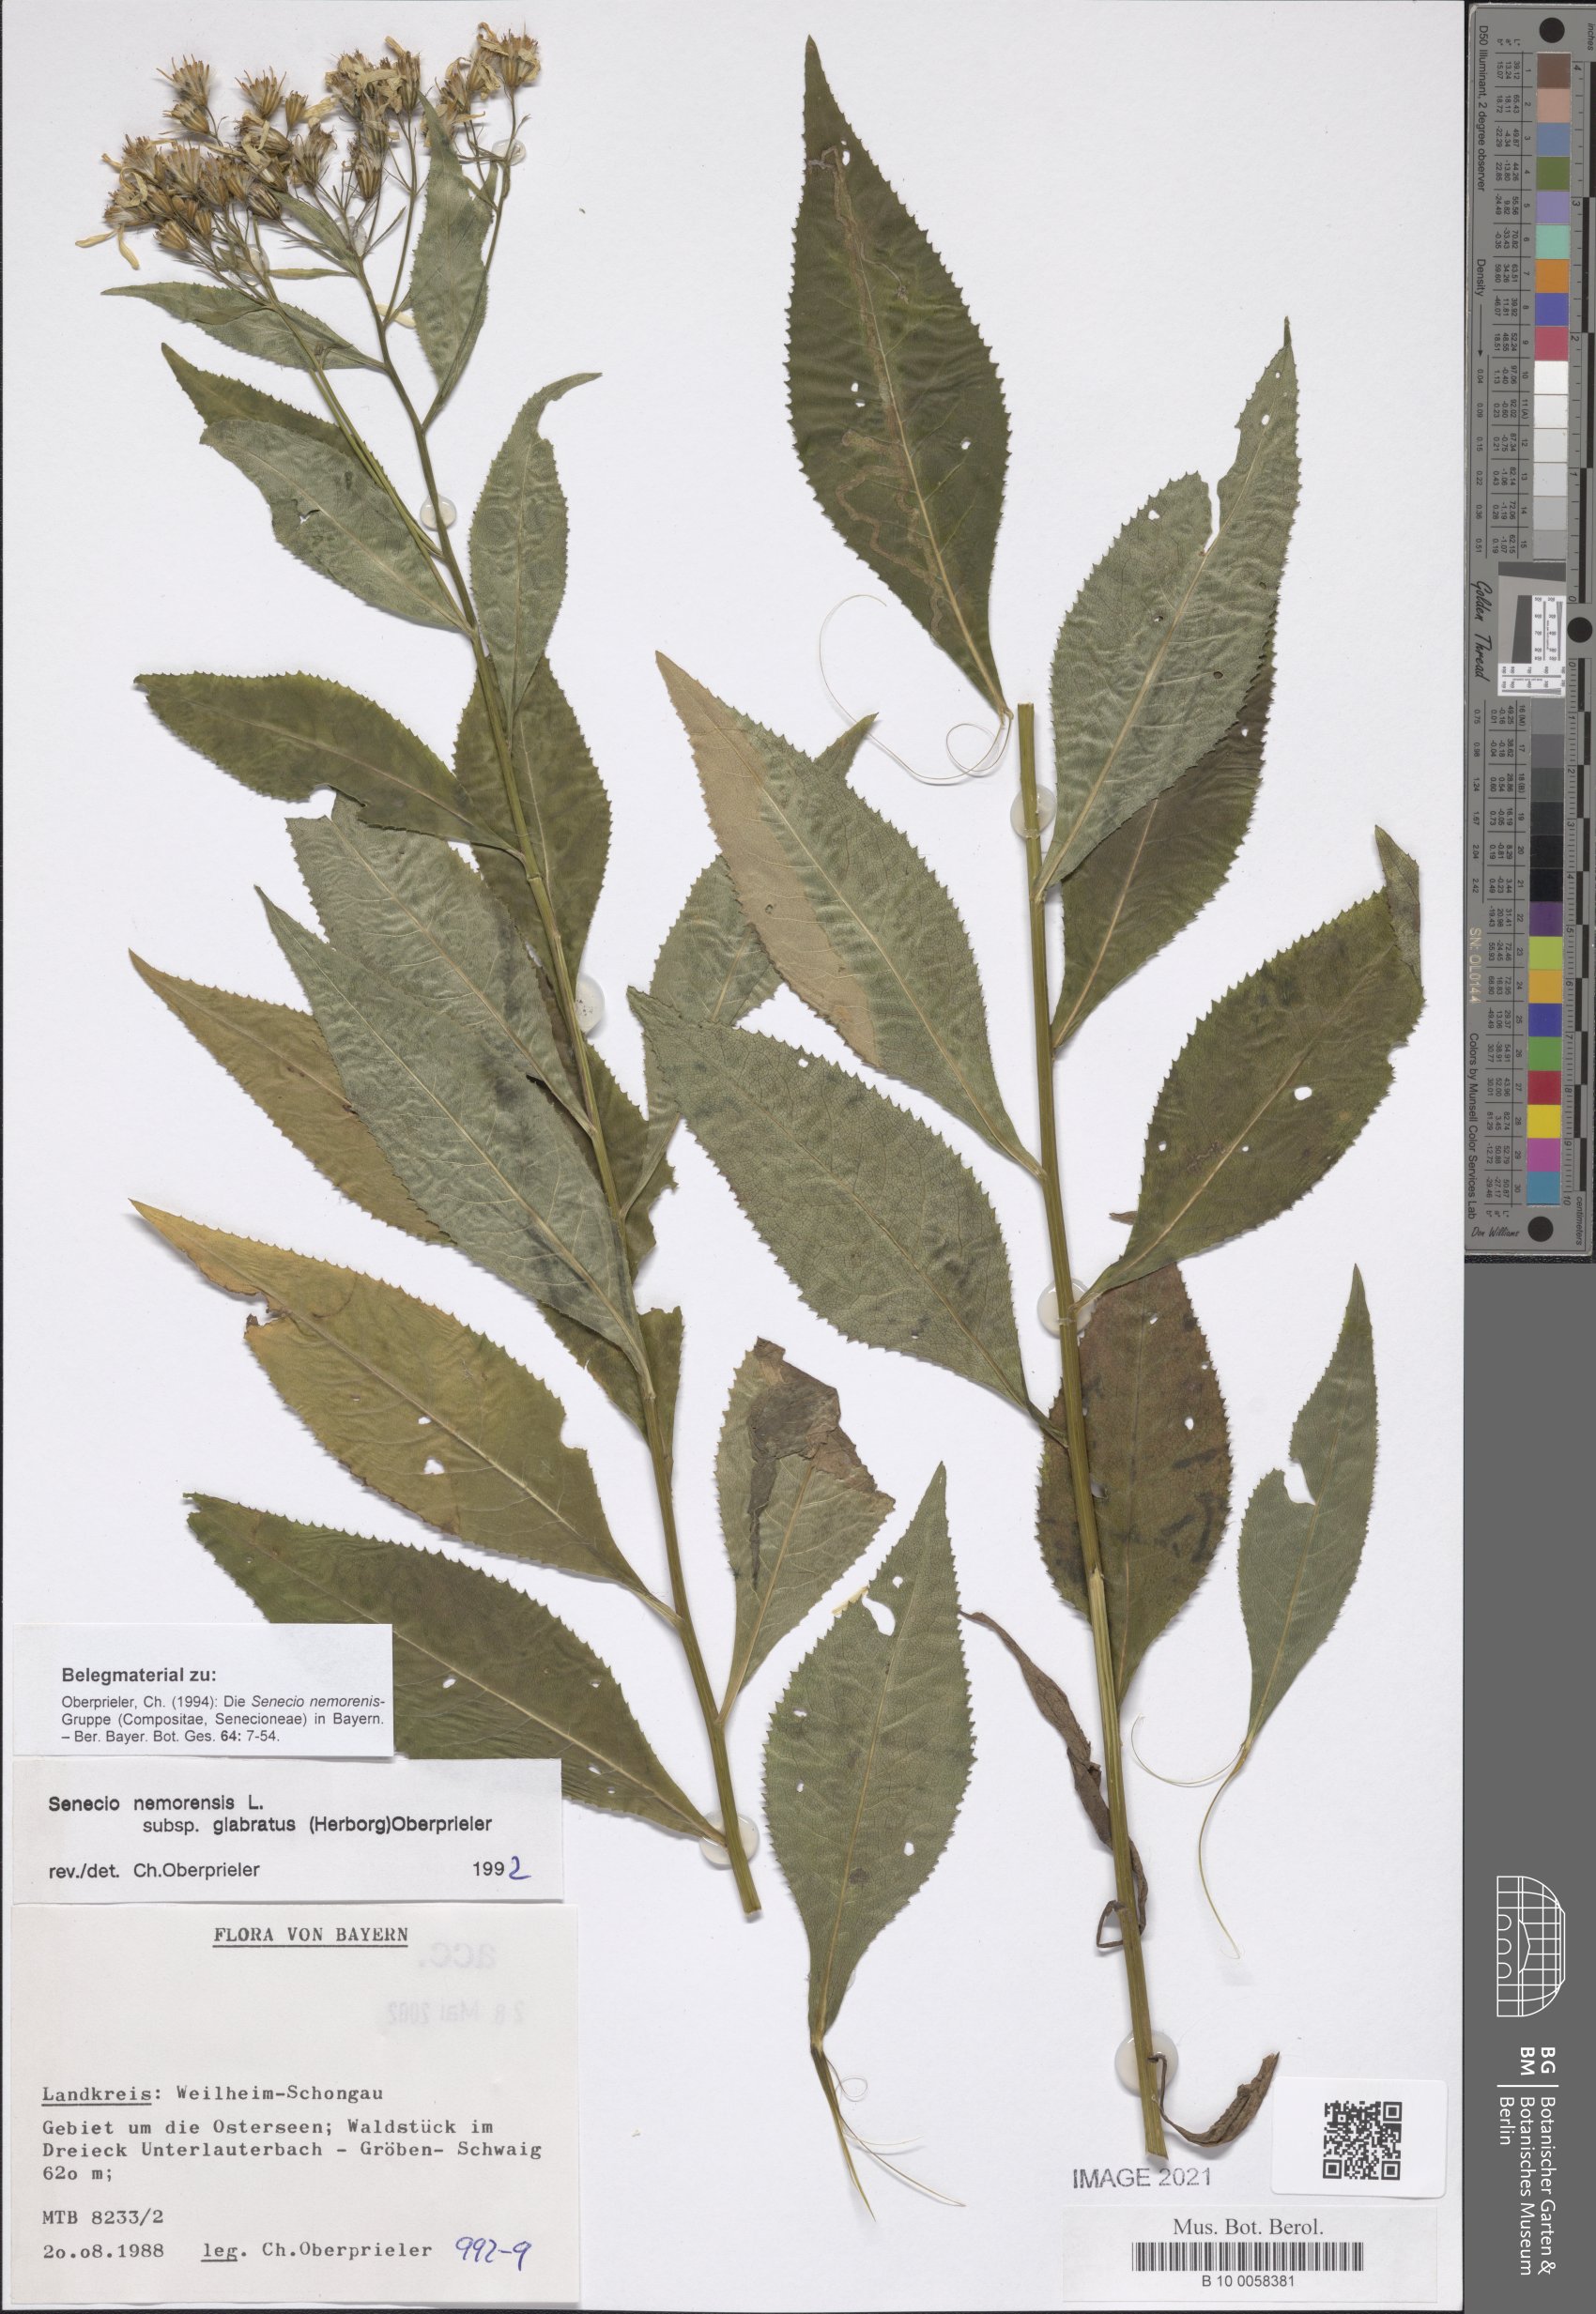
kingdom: Plantae
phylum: Tracheophyta
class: Magnoliopsida
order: Asterales
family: Asteraceae
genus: Senecio
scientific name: Senecio germanicus
